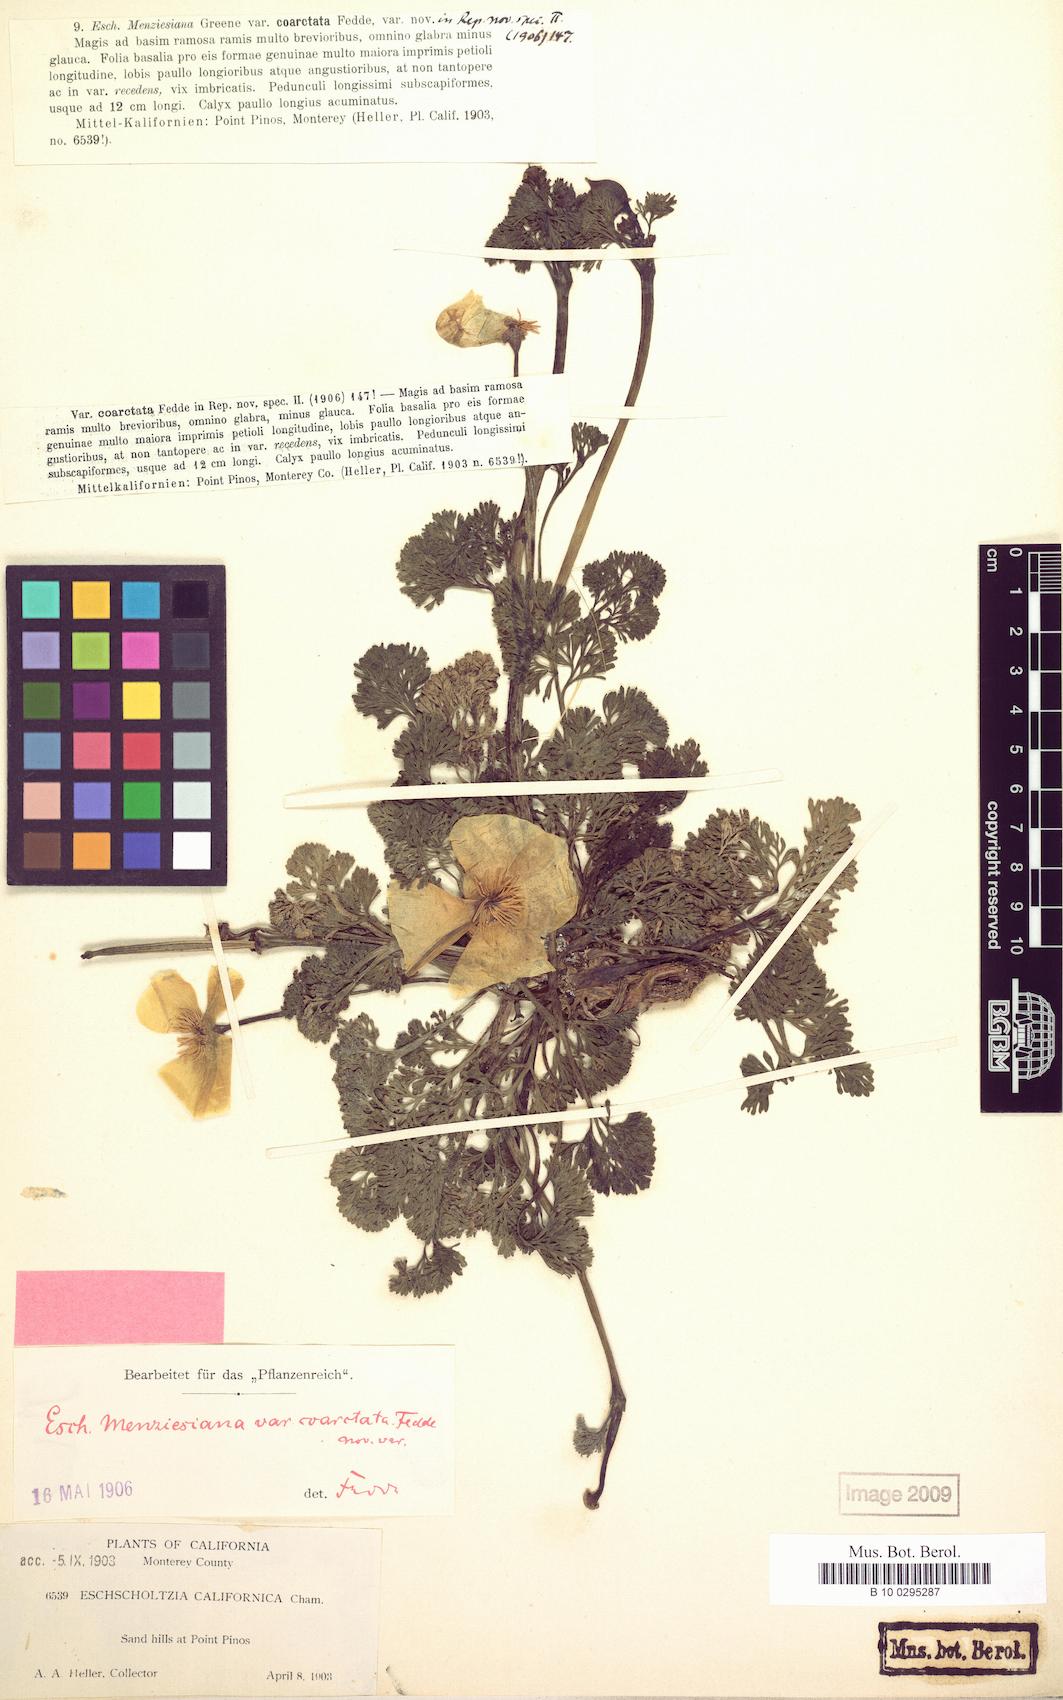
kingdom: Plantae
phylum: Tracheophyta
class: Magnoliopsida
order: Ranunculales
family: Papaveraceae
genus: Eschscholzia
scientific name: Eschscholzia californica
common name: California poppy
